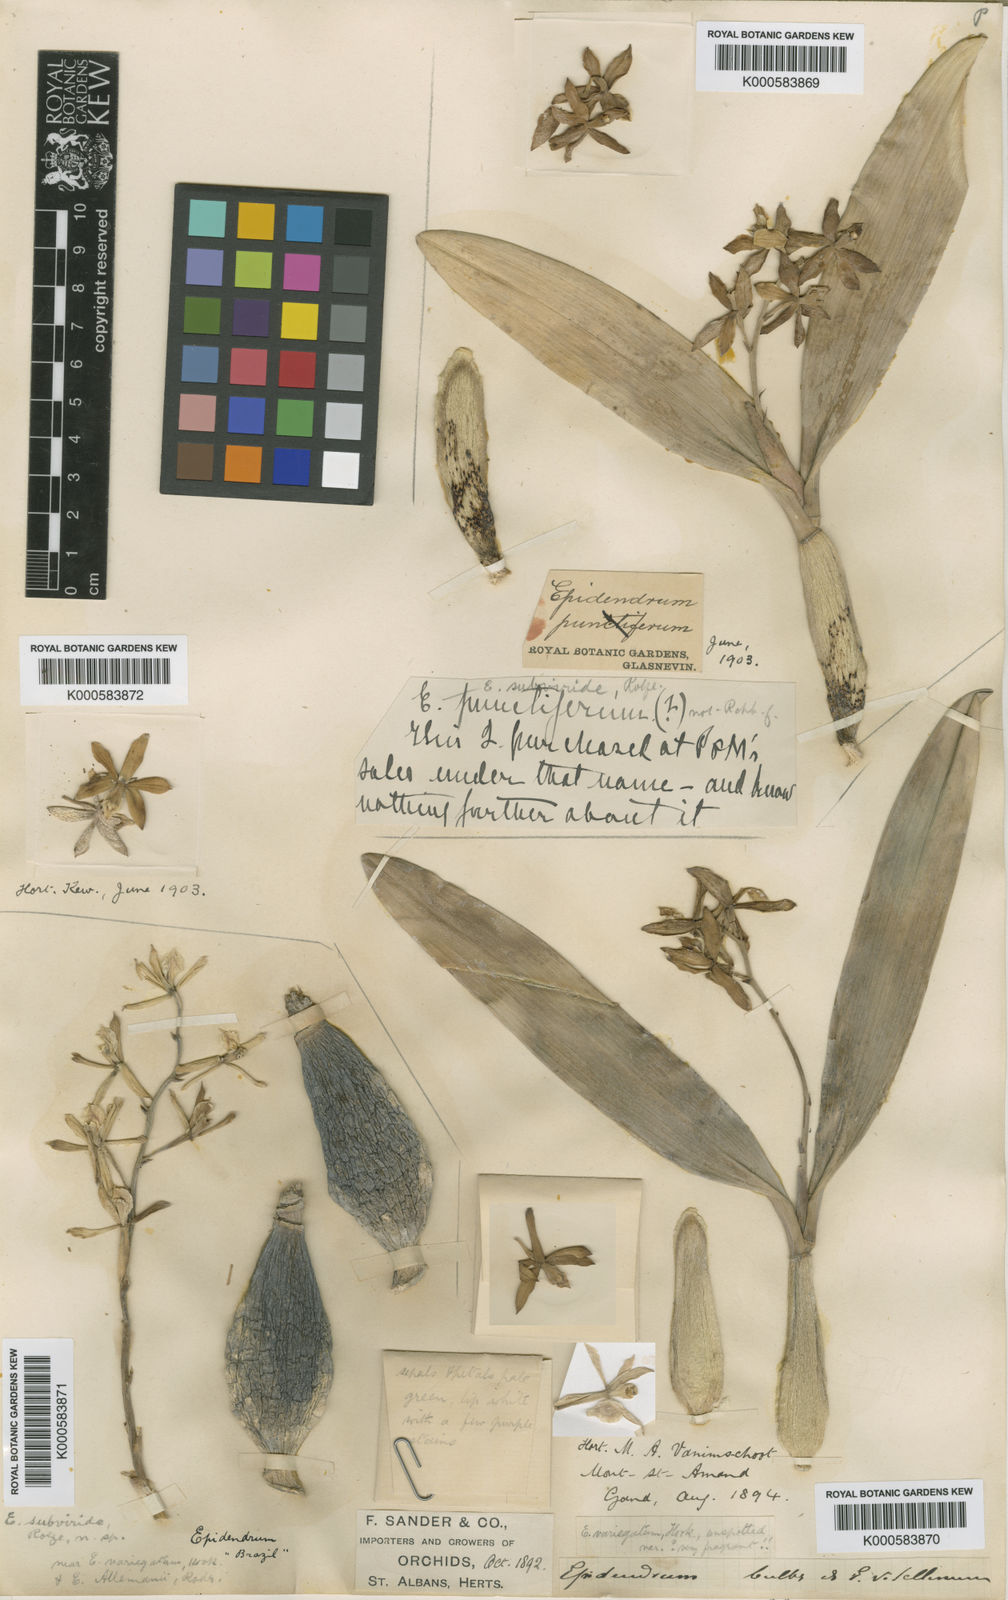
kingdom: Plantae
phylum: Tracheophyta
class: Liliopsida
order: Asparagales
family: Orchidaceae
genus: Encyclia
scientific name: Encyclia
